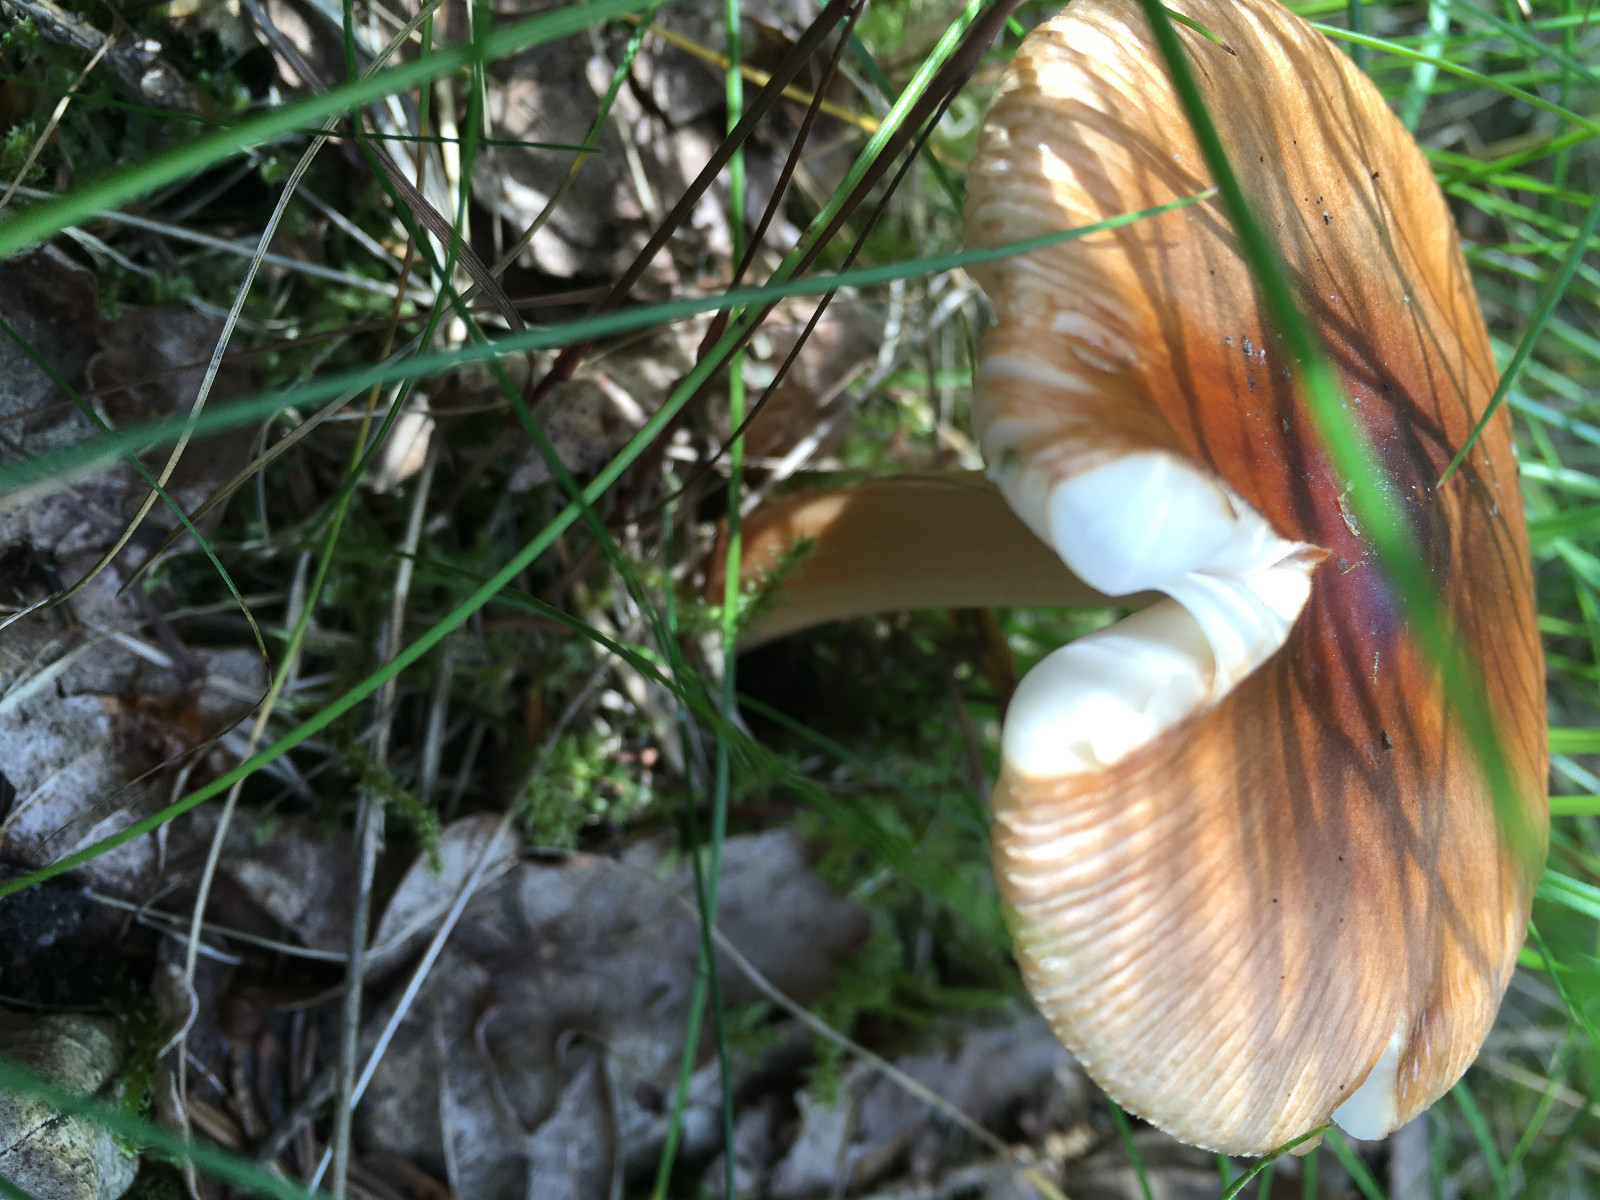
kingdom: Fungi
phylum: Basidiomycota
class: Agaricomycetes
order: Agaricales
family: Amanitaceae
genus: Amanita
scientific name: Amanita fulva
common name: brun kam-fluesvamp
